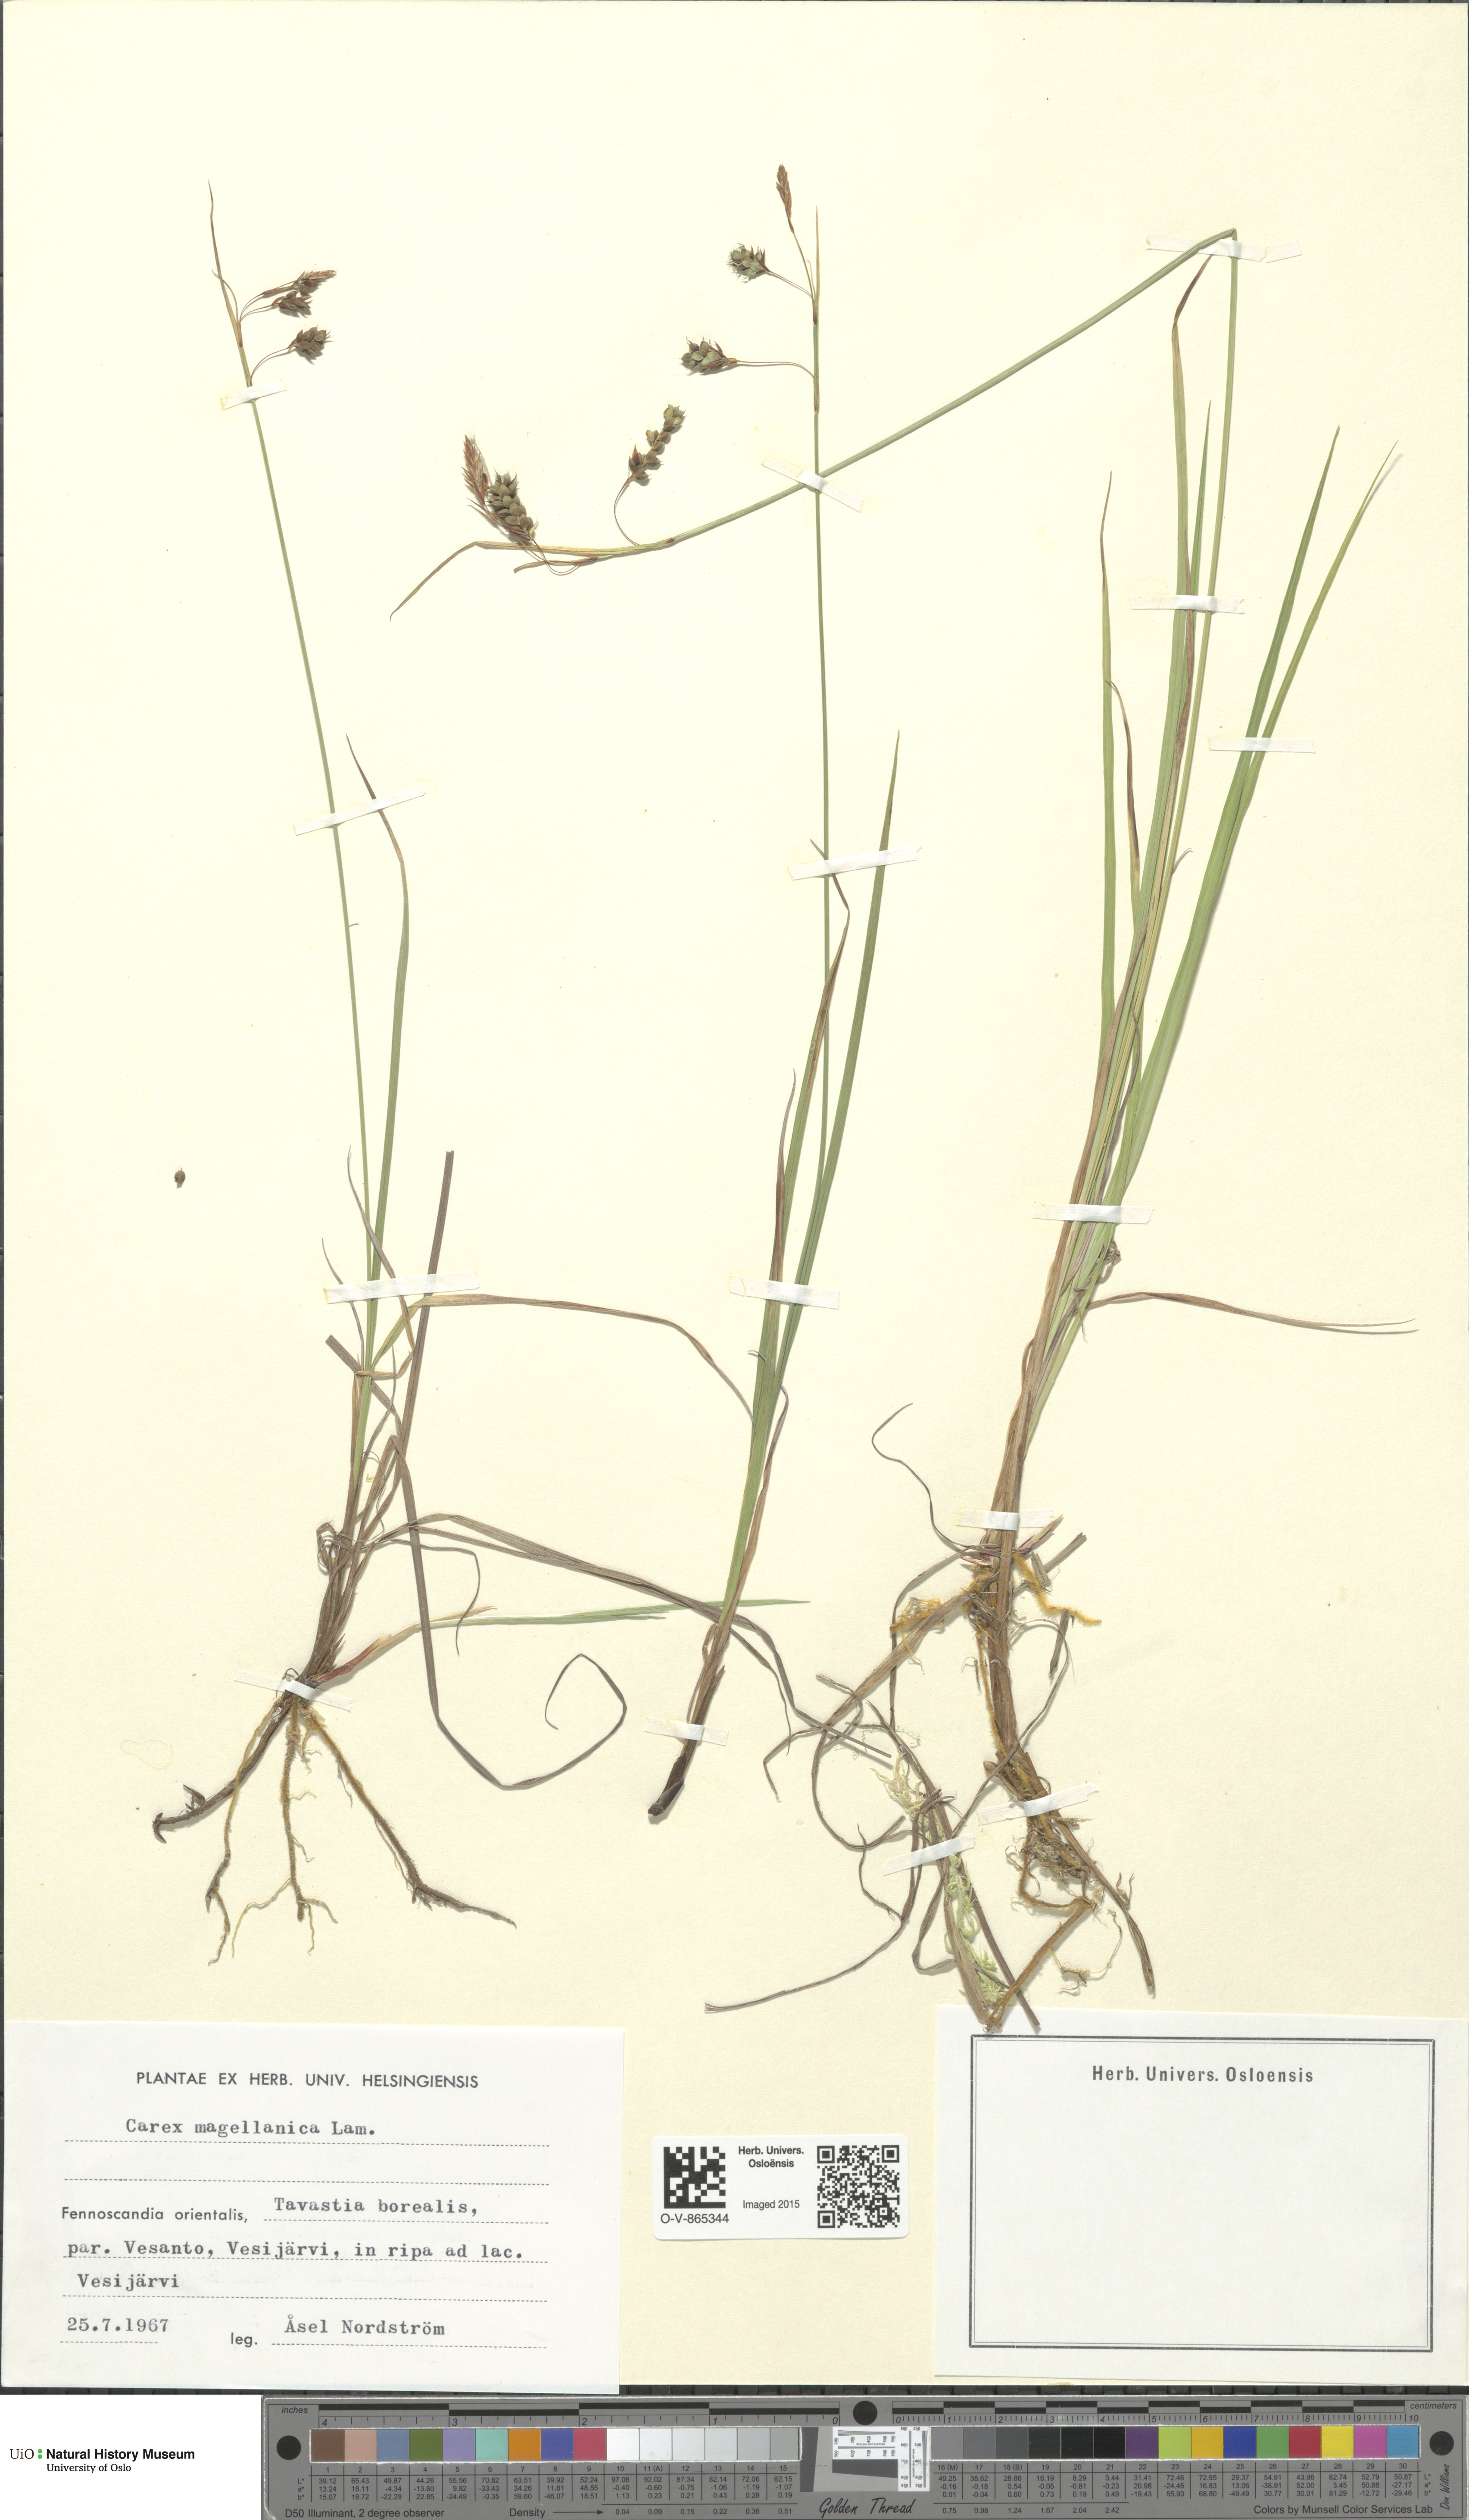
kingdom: Plantae
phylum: Tracheophyta
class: Liliopsida
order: Poales
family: Cyperaceae
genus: Carex
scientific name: Carex magellanica
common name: Bog sedge
